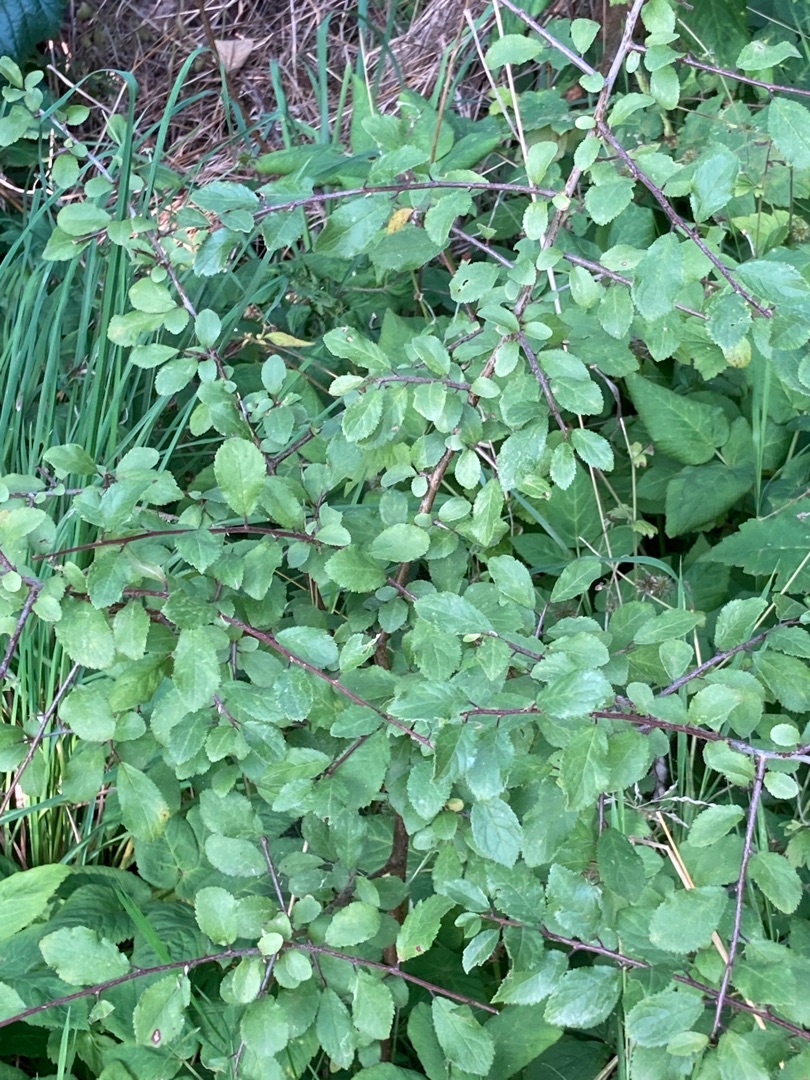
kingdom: Plantae
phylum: Tracheophyta
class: Magnoliopsida
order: Rosales
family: Rosaceae
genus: Prunus
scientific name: Prunus spinosa
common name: Slåen
